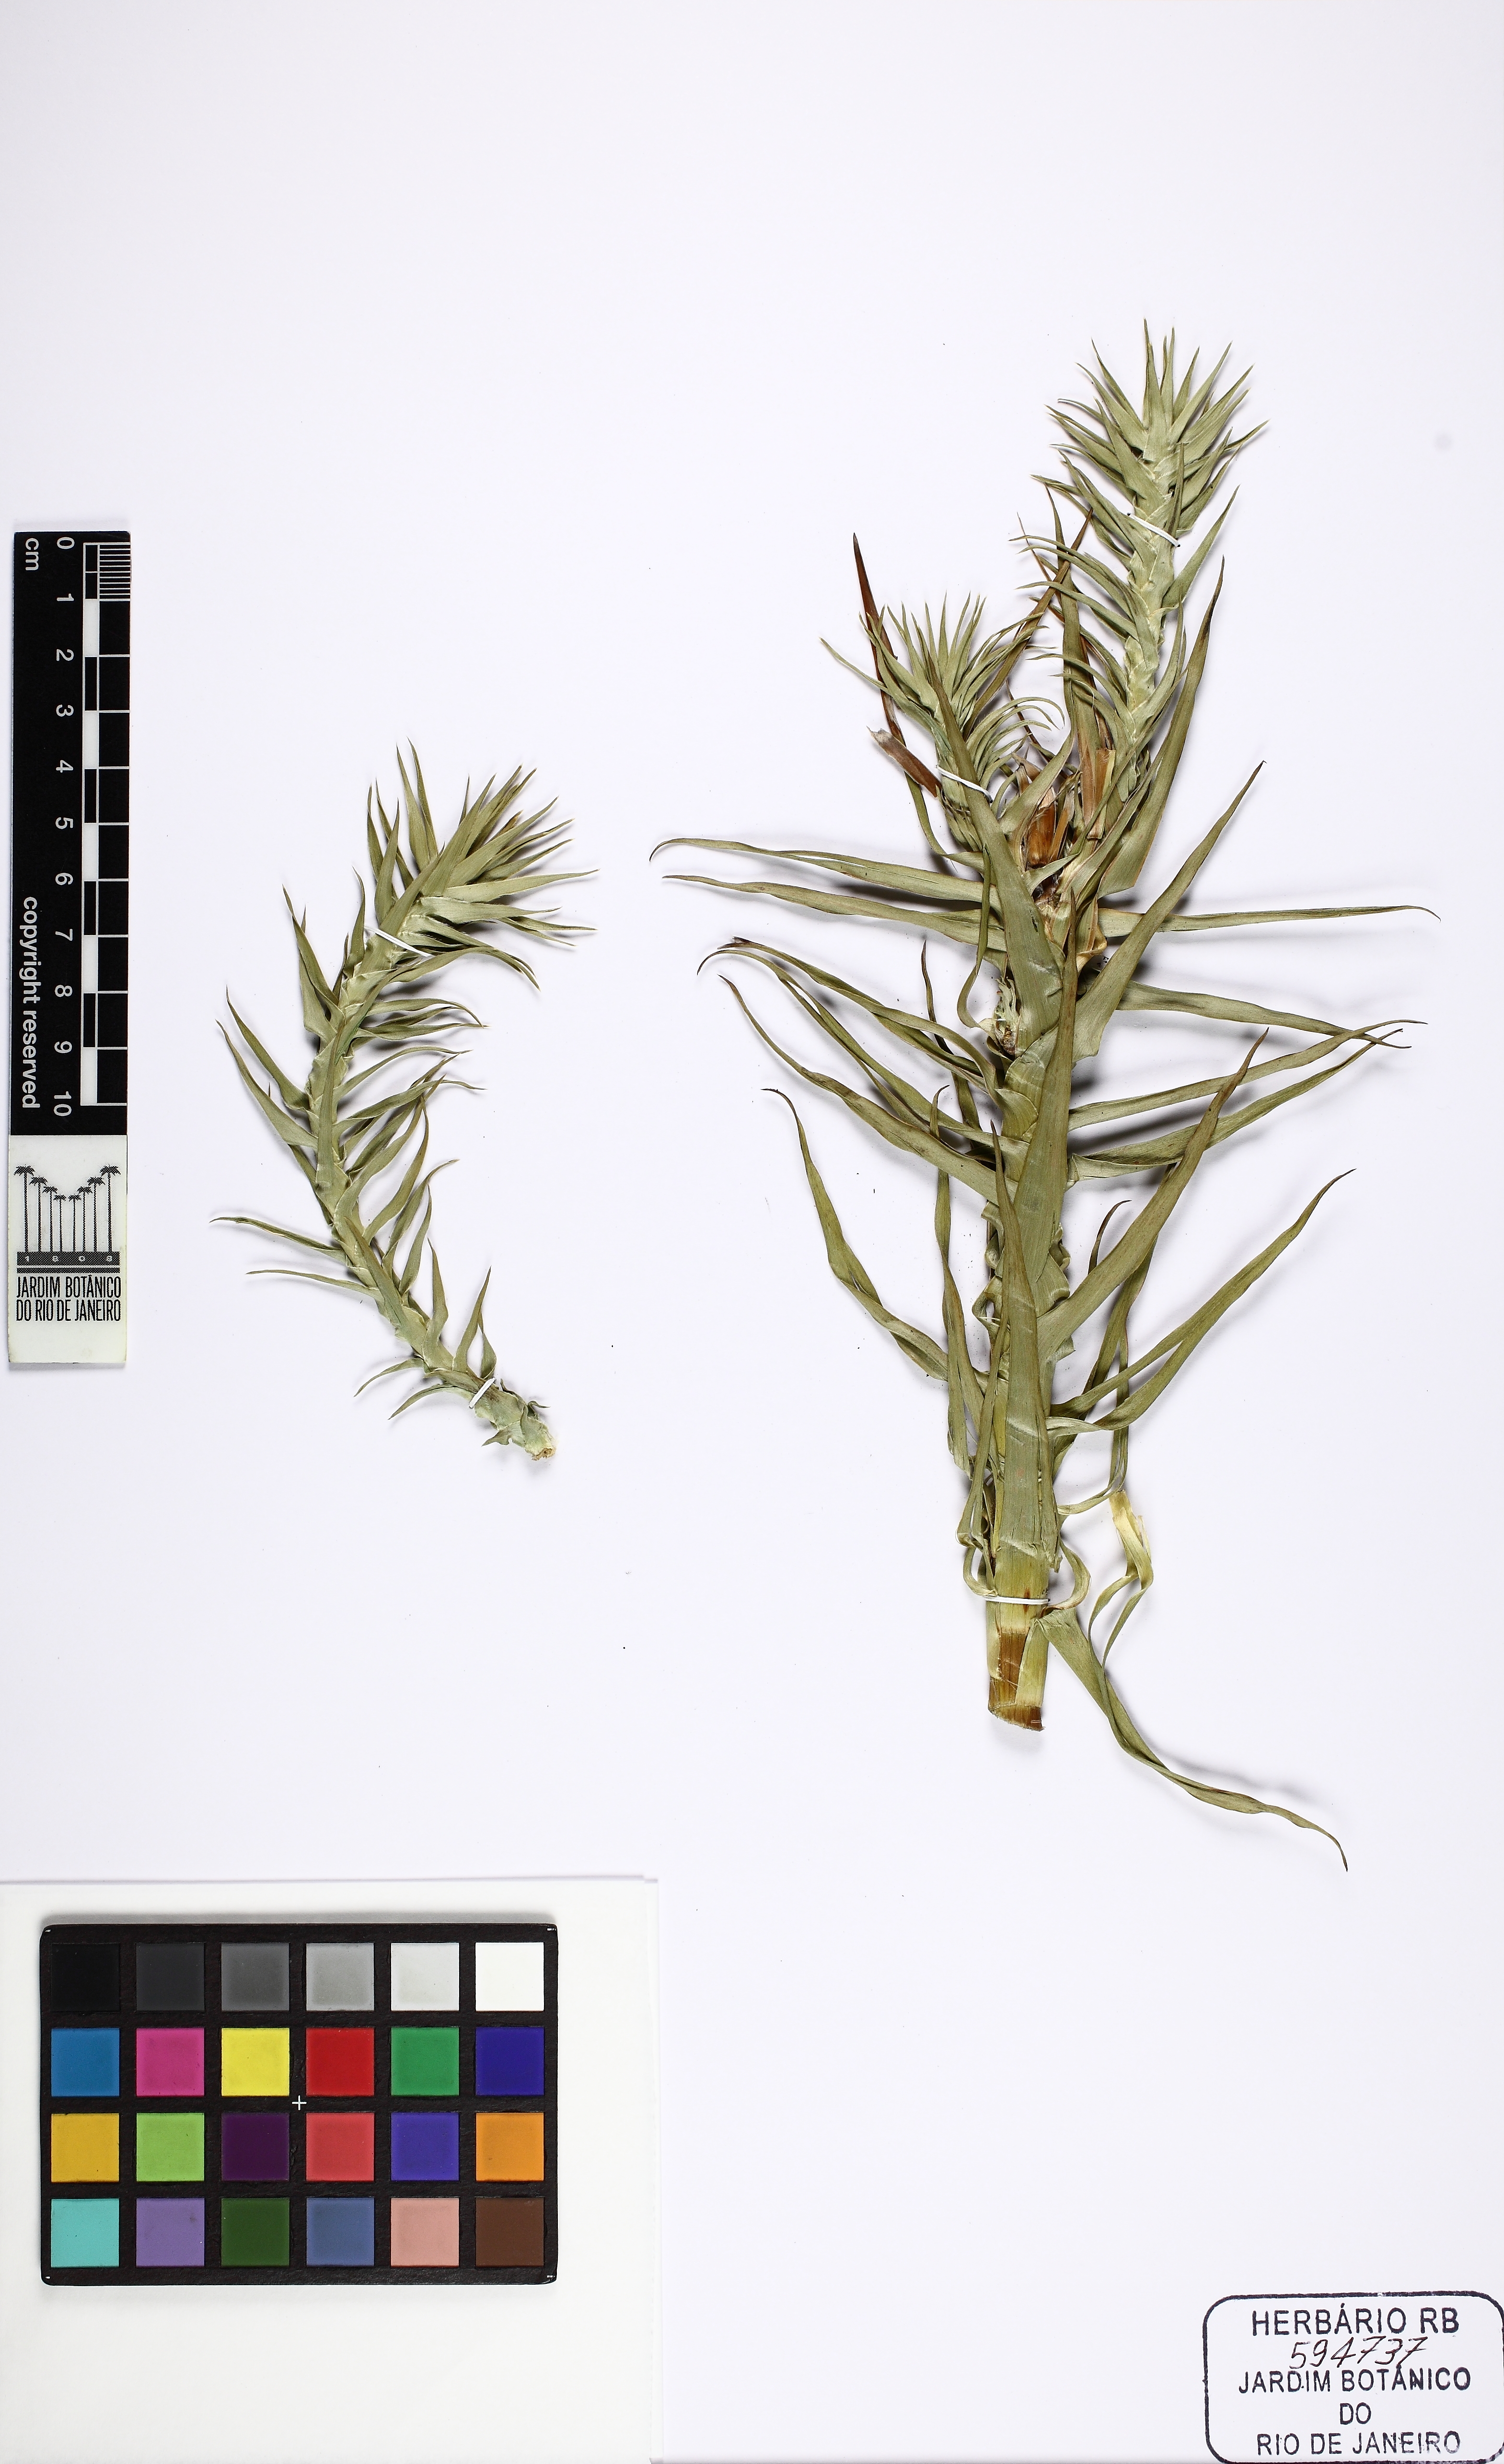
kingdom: Plantae
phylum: Tracheophyta
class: Liliopsida
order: Poales
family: Eriocaulaceae
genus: Paepalanthus
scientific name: Paepalanthus ramosus
